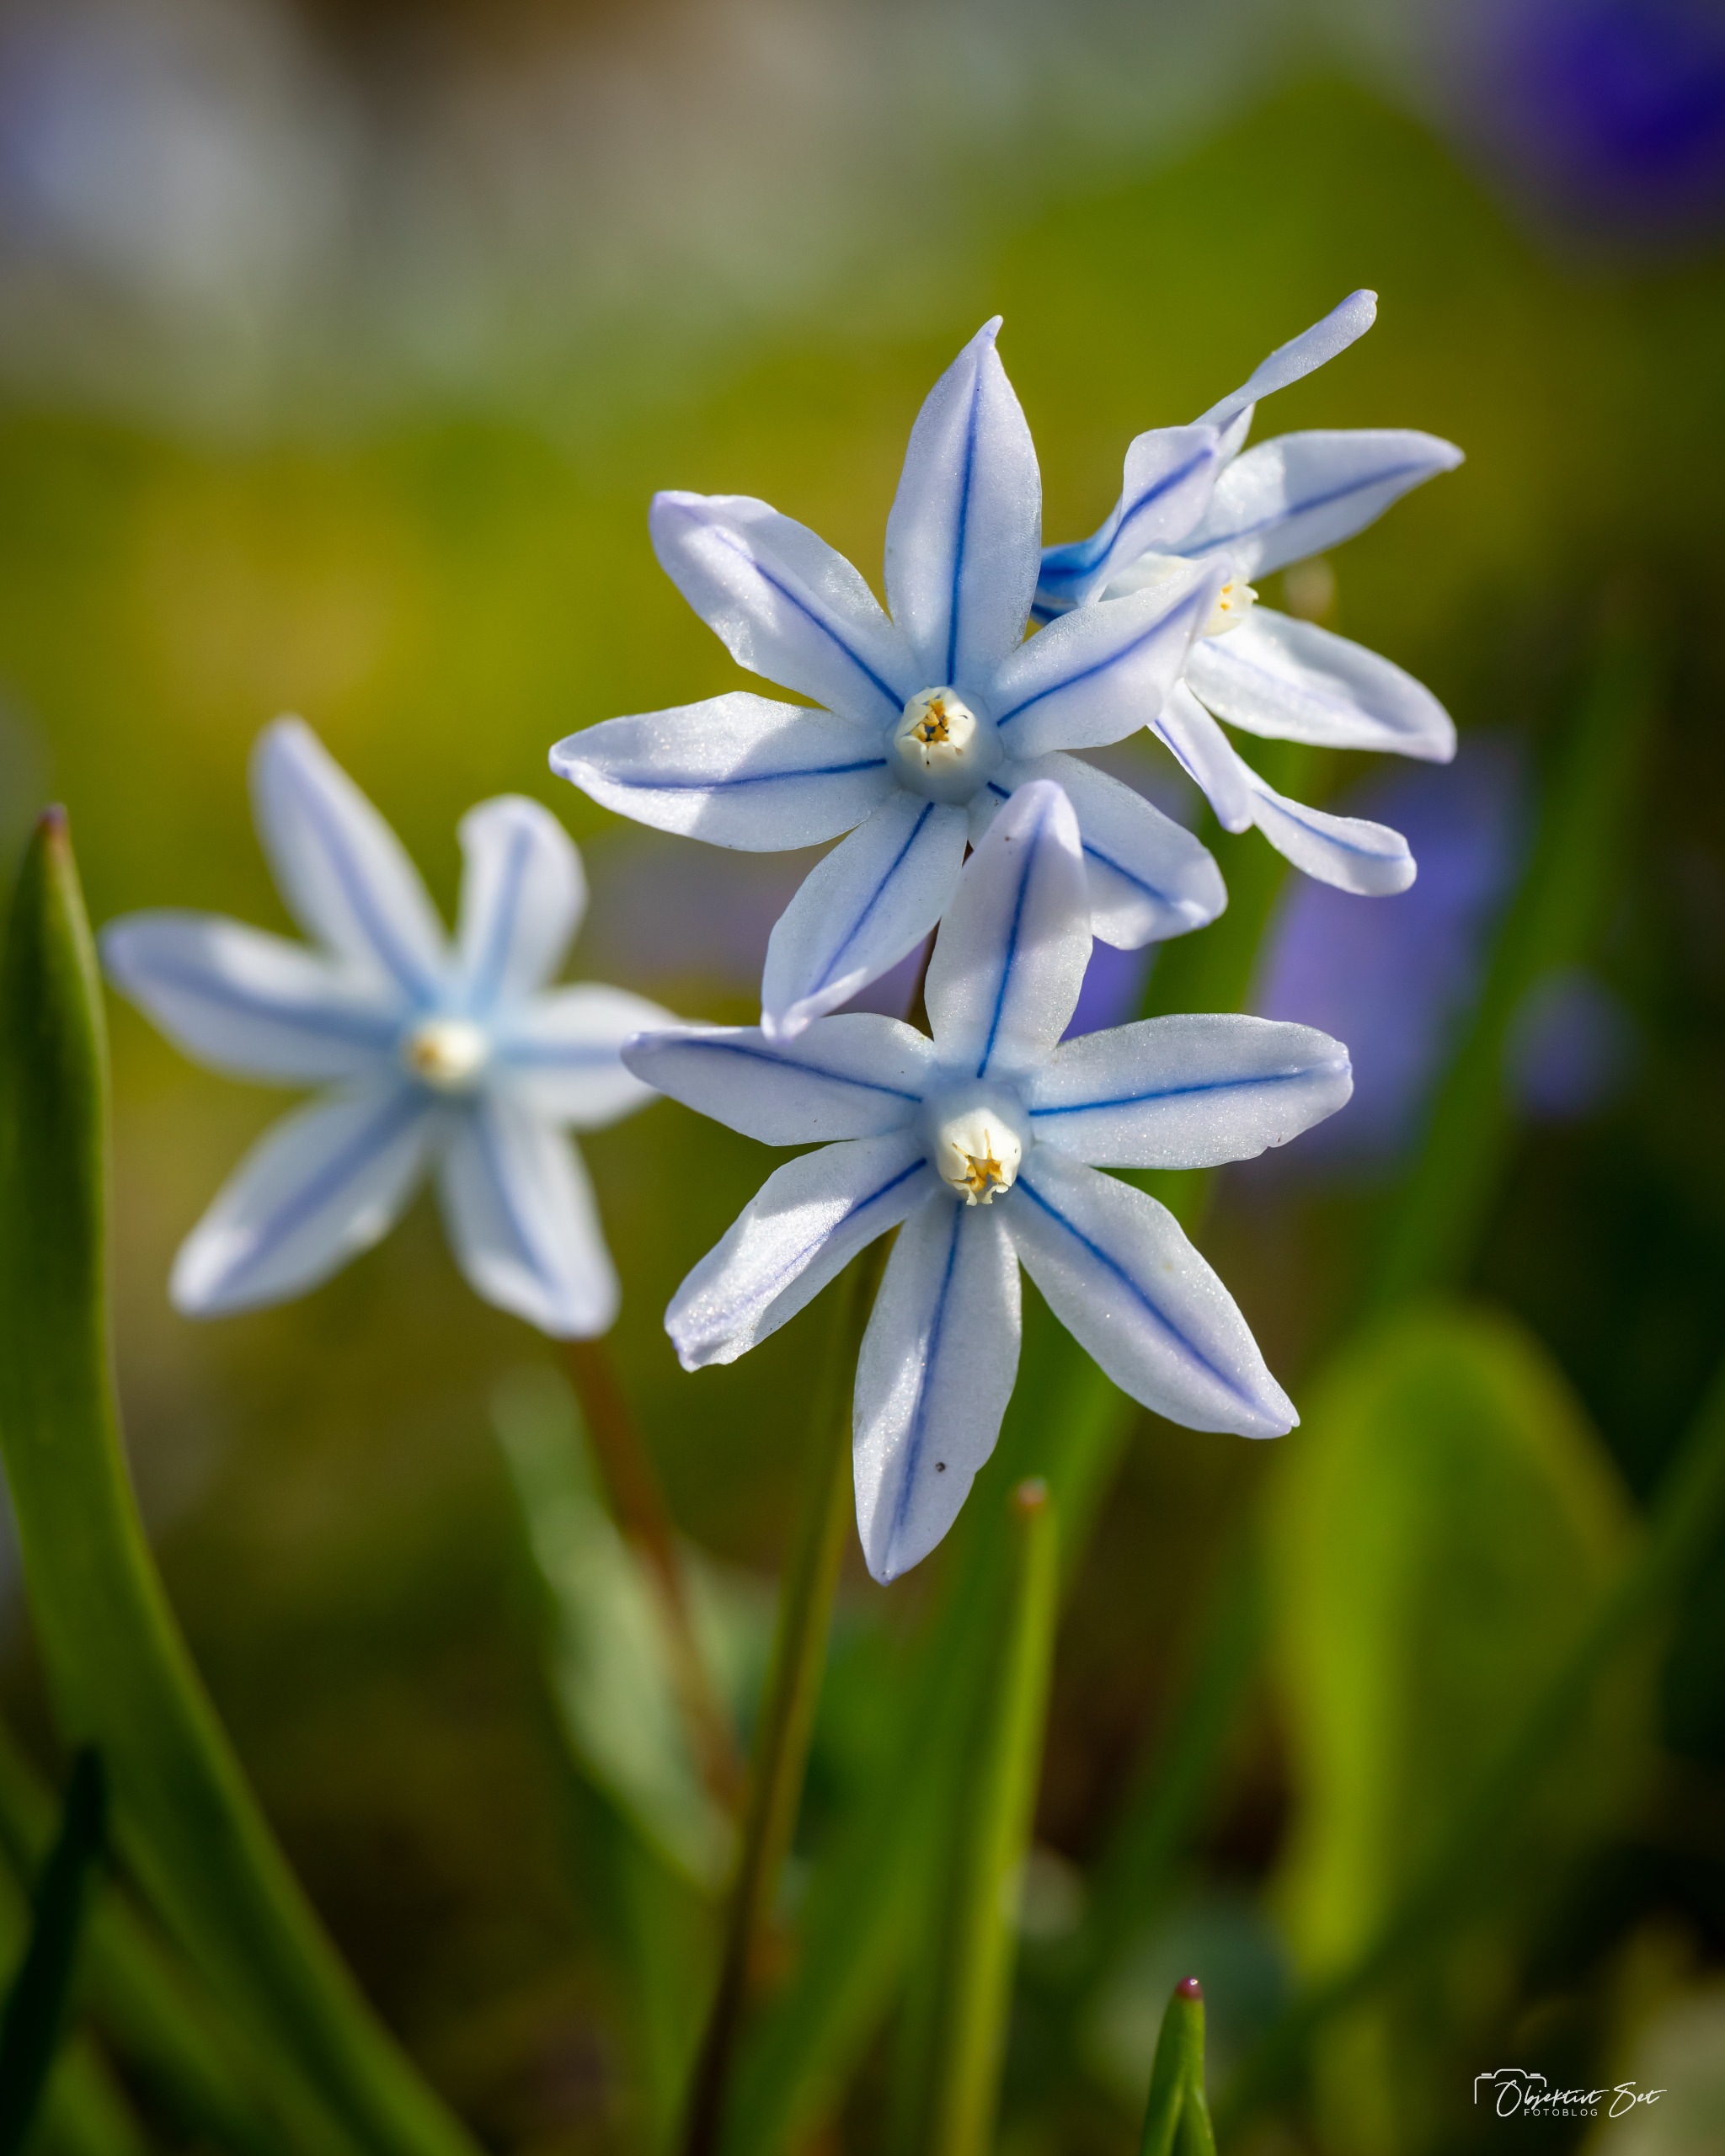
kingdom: Plantae
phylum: Tracheophyta
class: Liliopsida
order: Asparagales
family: Asparagaceae
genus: Puschkinia
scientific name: Puschkinia scilloides
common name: Porcelænshyacint
